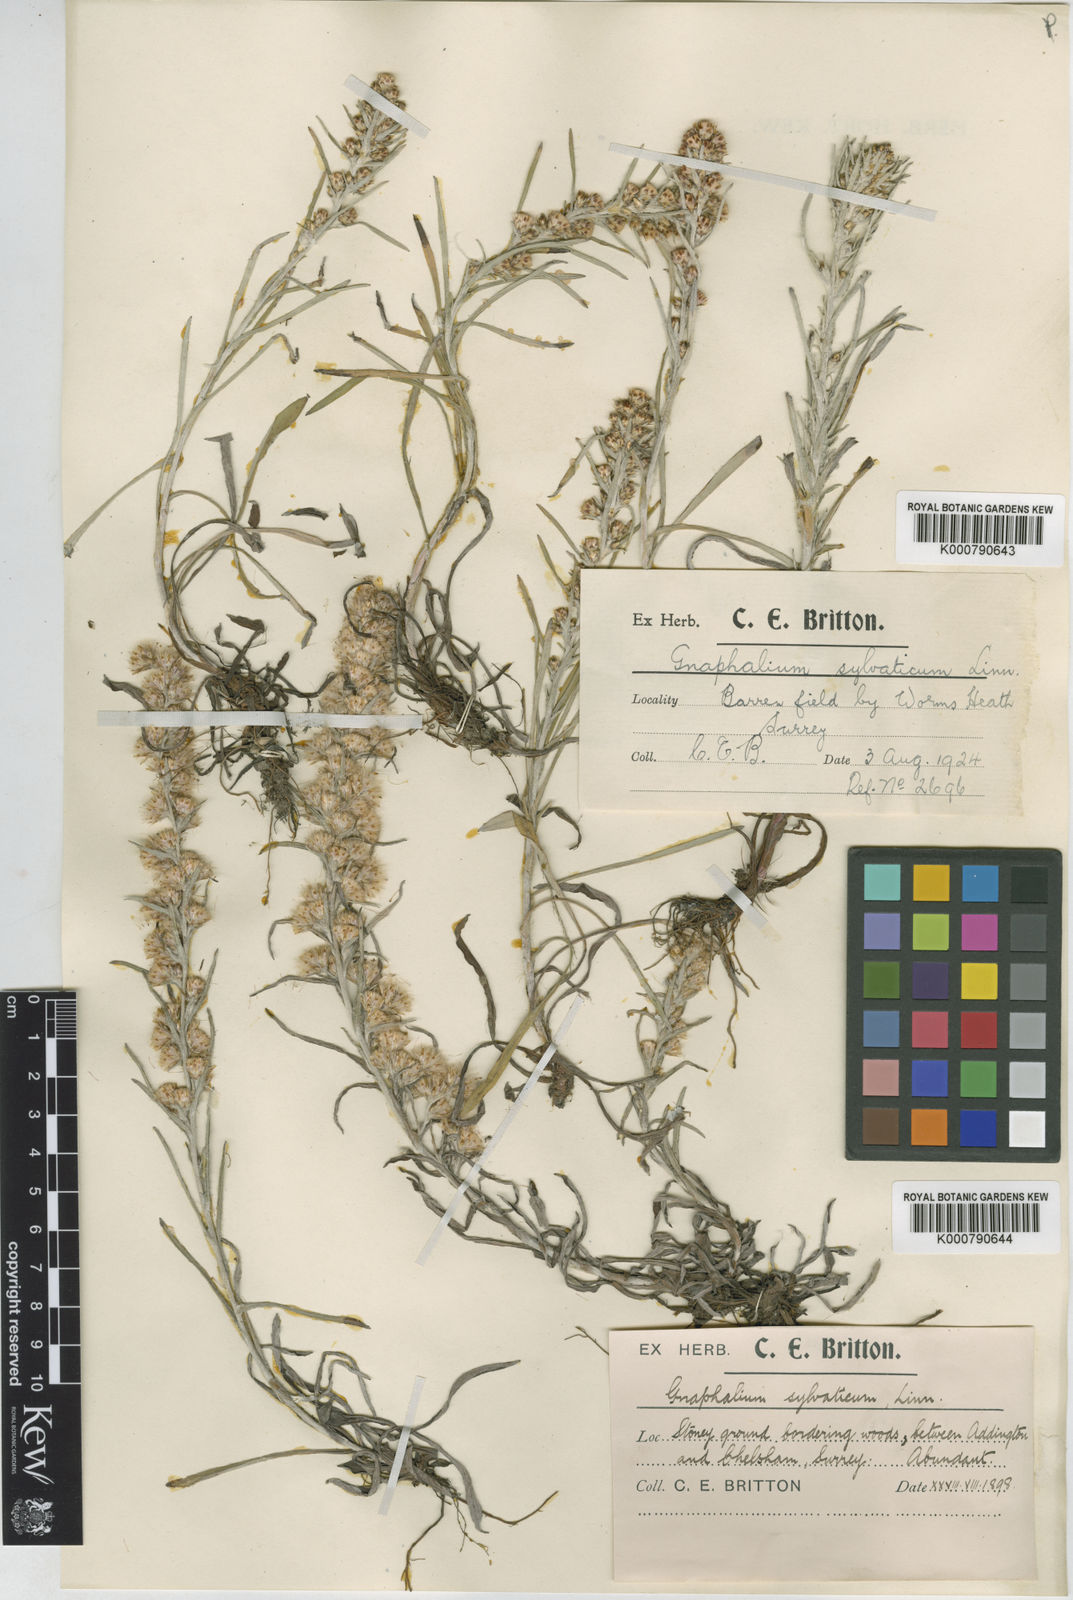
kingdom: Plantae
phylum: Tracheophyta
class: Magnoliopsida
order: Asterales
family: Asteraceae
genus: Omalotheca
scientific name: Omalotheca sylvatica
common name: Heath cudweed
